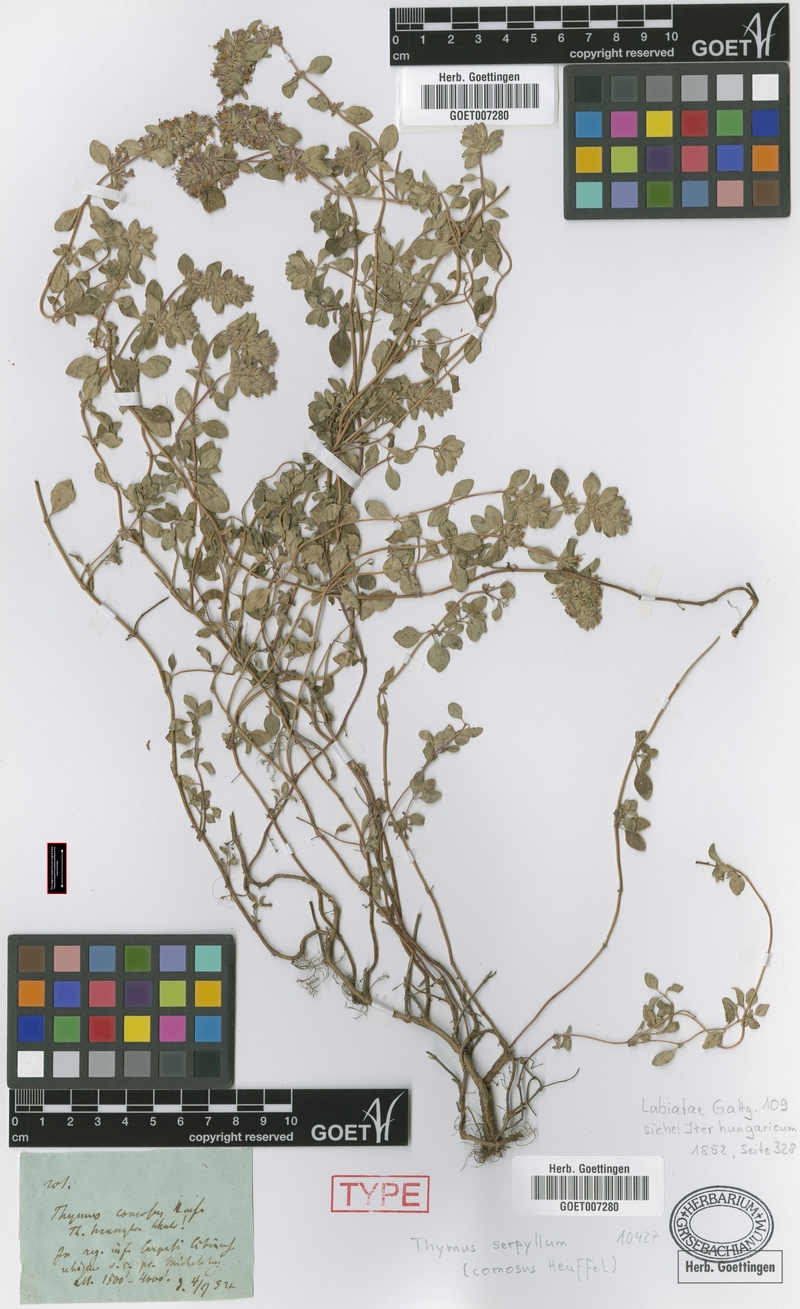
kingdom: Plantae
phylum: Tracheophyta
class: Magnoliopsida
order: Lamiales
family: Lamiaceae
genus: Thymus
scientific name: Thymus comosus
